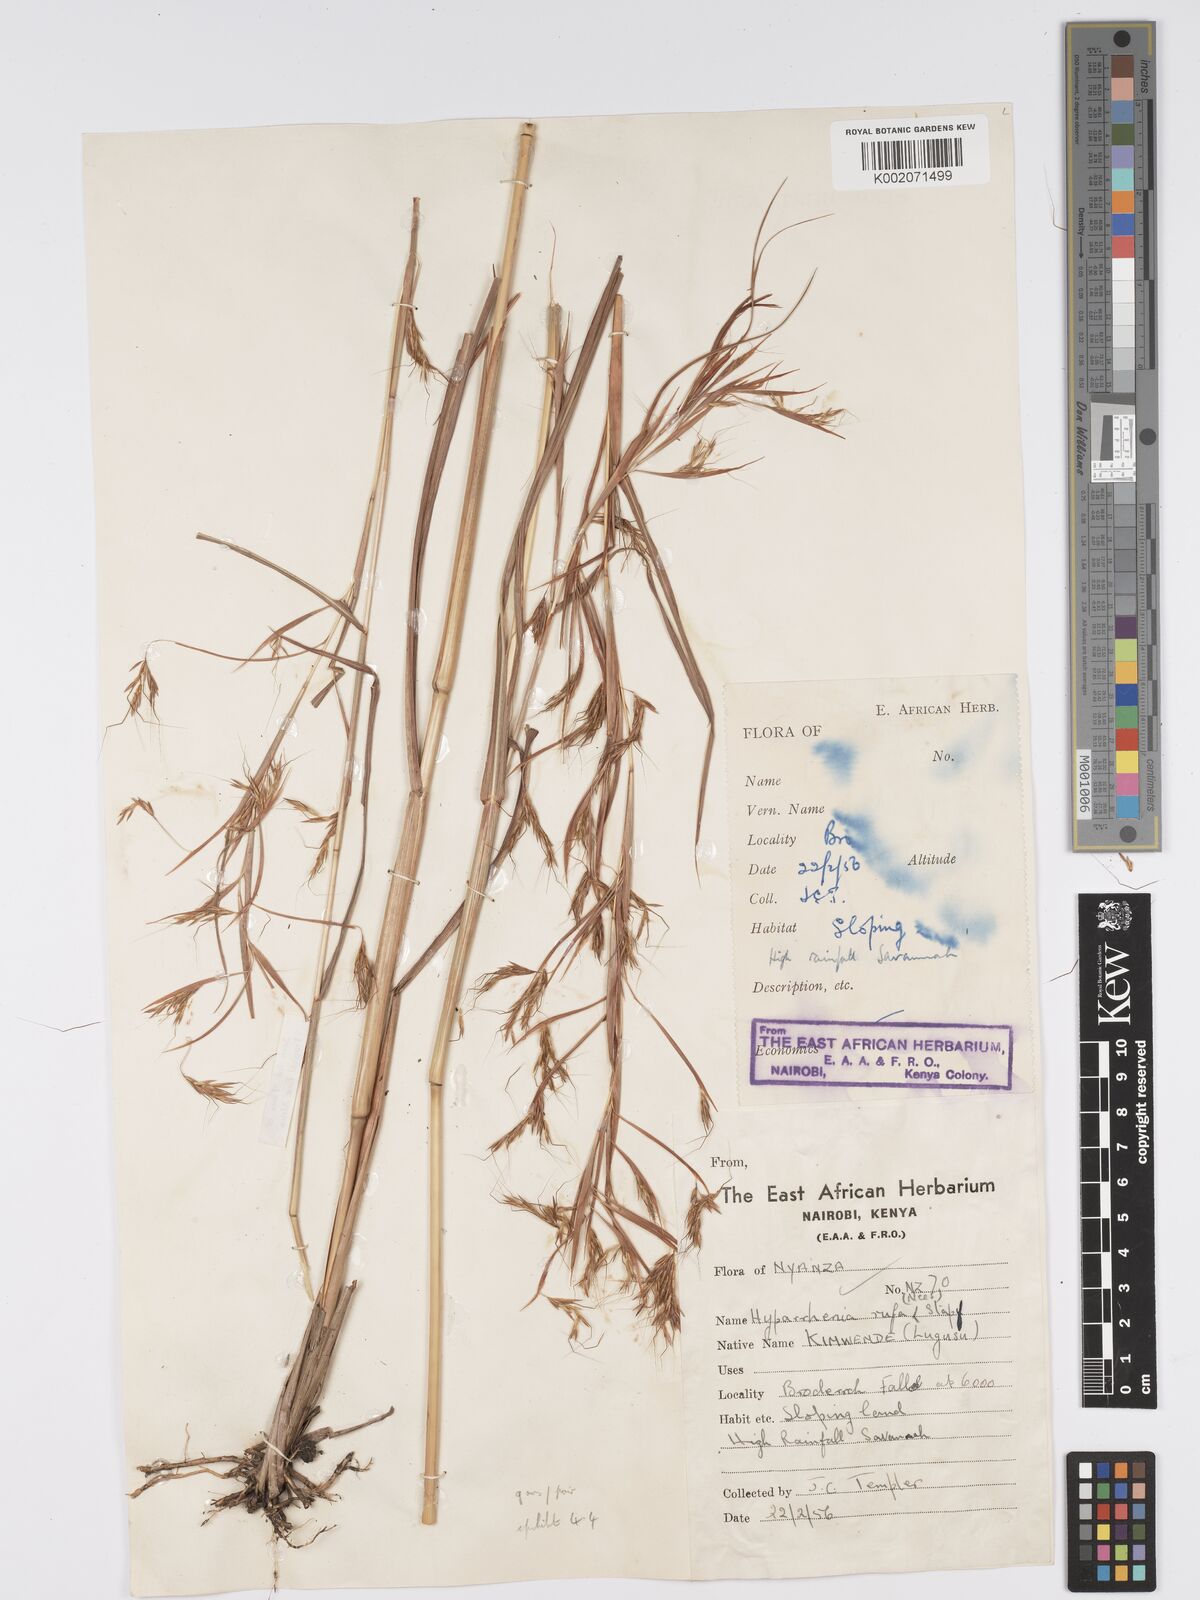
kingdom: Plantae
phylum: Tracheophyta
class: Liliopsida
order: Poales
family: Poaceae
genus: Hyparrhenia
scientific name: Hyparrhenia rufa
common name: Jaraguagrass
